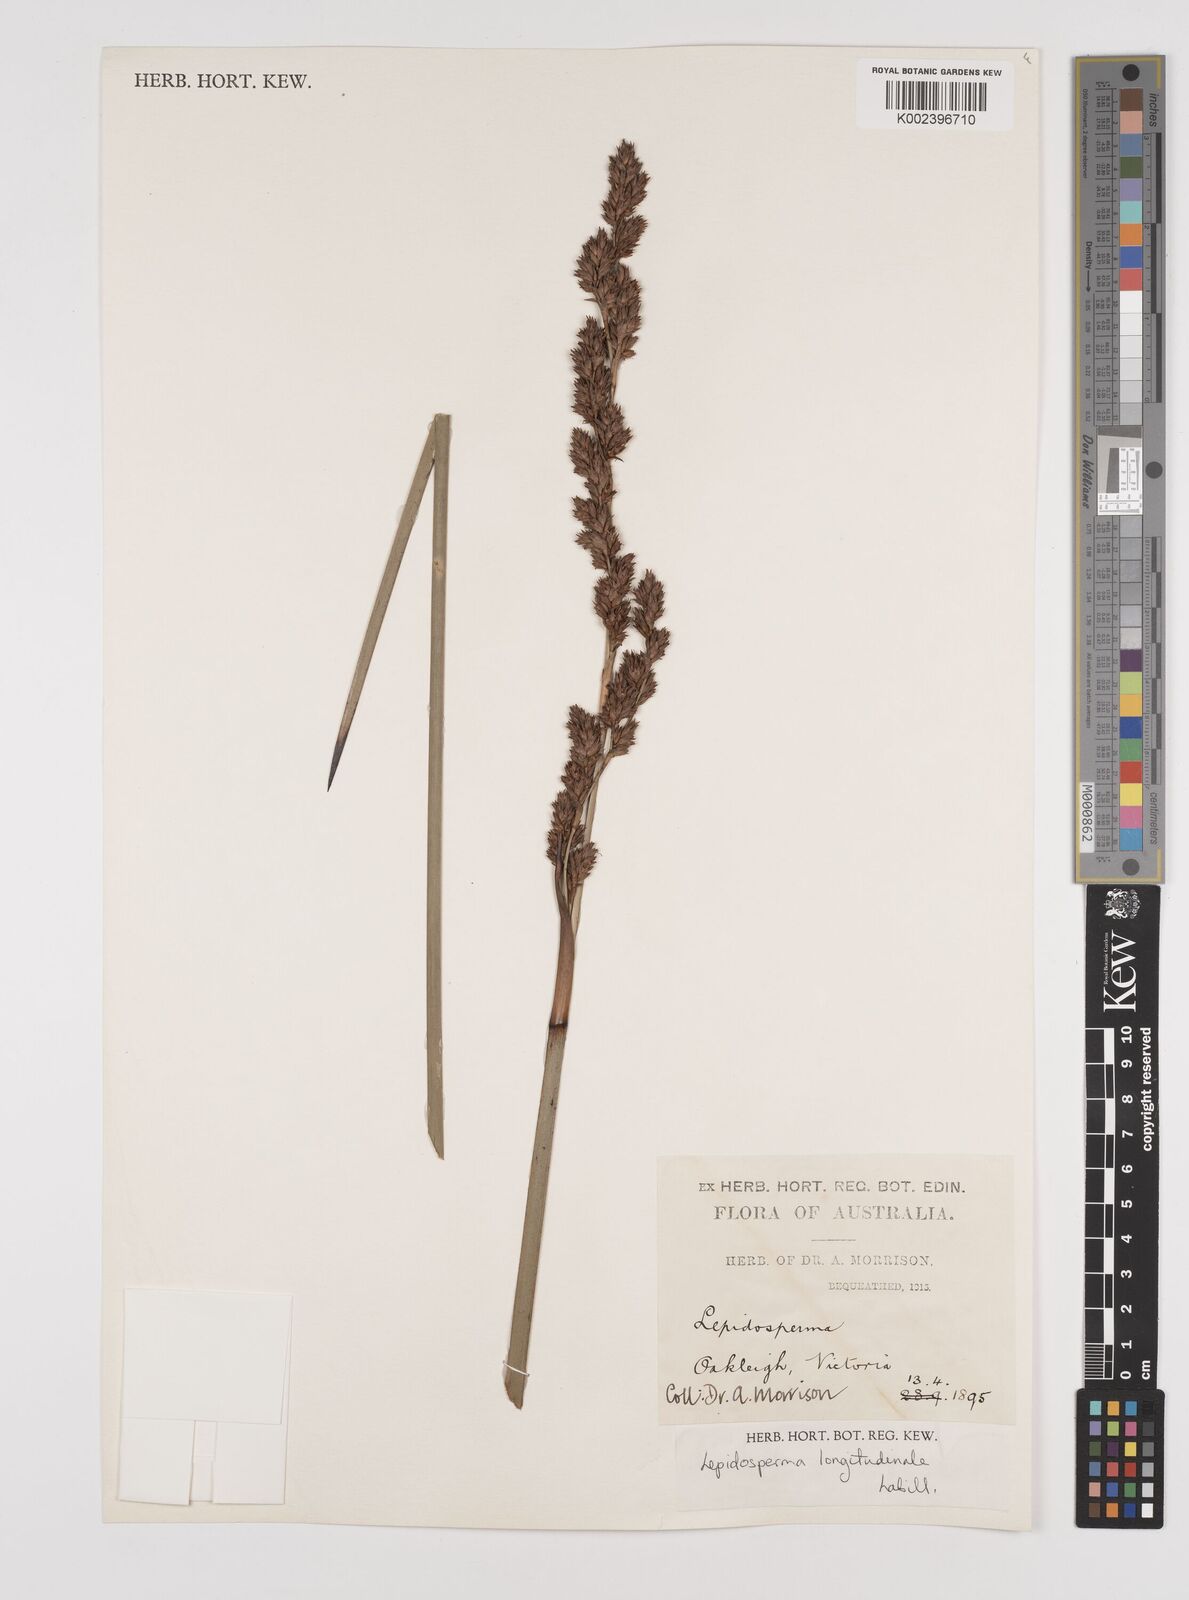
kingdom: Plantae
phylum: Tracheophyta
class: Liliopsida
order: Poales
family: Cyperaceae
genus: Lepidosperma
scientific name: Lepidosperma longitudinale
